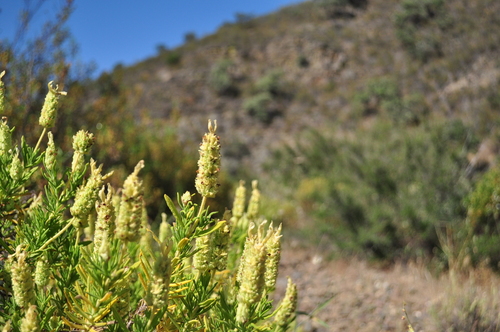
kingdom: Plantae
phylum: Tracheophyta
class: Magnoliopsida
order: Lamiales
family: Lamiaceae
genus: Lavandula
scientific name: Lavandula viridis
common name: Green spanish lavender
